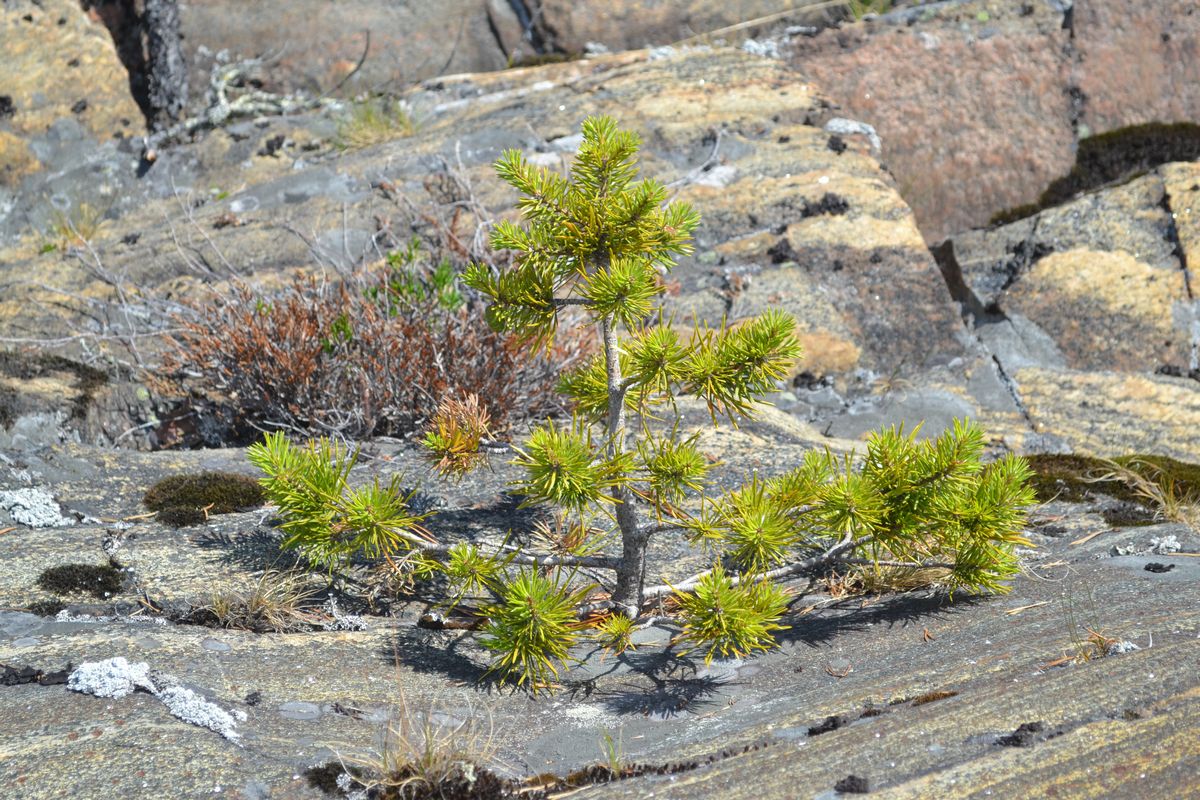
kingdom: Plantae
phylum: Tracheophyta
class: Pinopsida
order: Pinales
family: Pinaceae
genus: Pinus
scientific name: Pinus sylvestris
